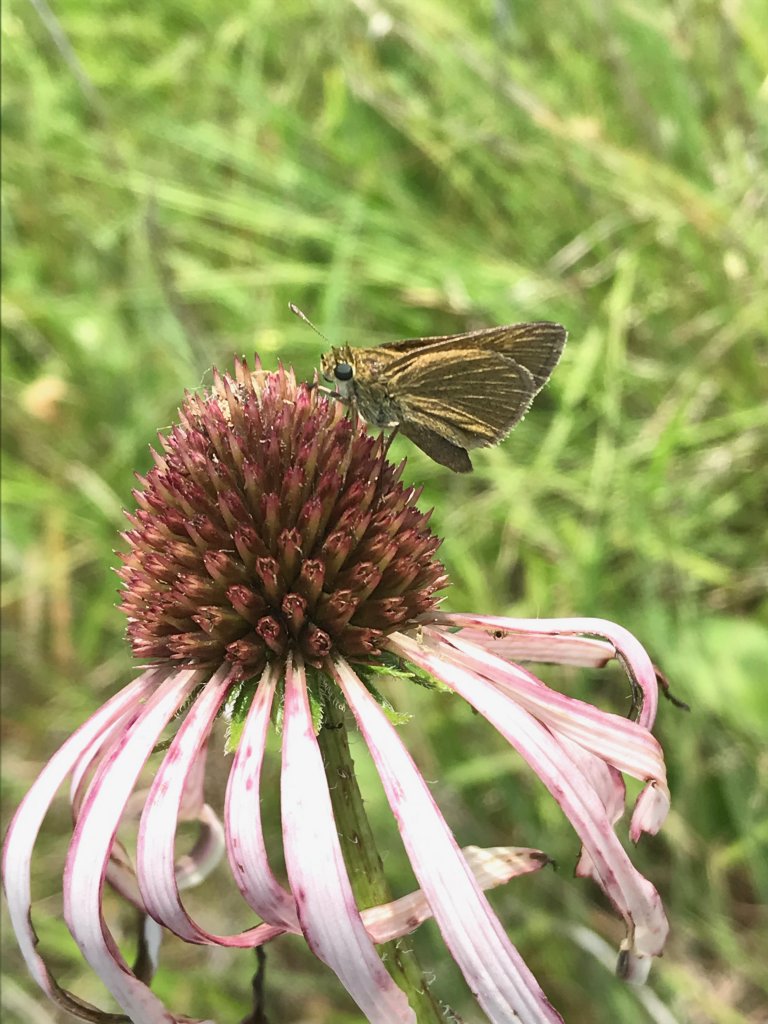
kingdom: Animalia
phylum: Arthropoda
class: Insecta
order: Lepidoptera
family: Hesperiidae
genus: Polites
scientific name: Polites themistocles
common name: Tawny-edged Skipper
